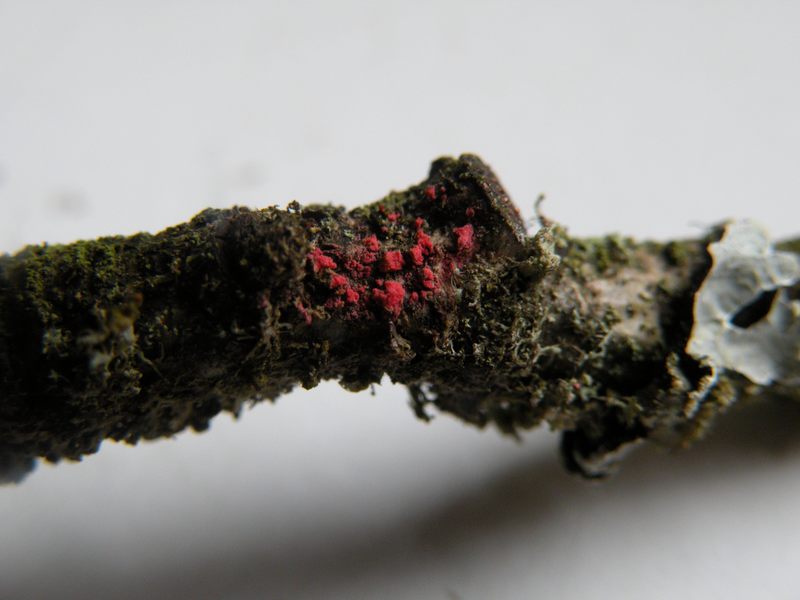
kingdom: Fungi
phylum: Ascomycota
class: Sordariomycetes
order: Hypocreales
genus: Illosporiopsis
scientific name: Illosporiopsis christiansenii
